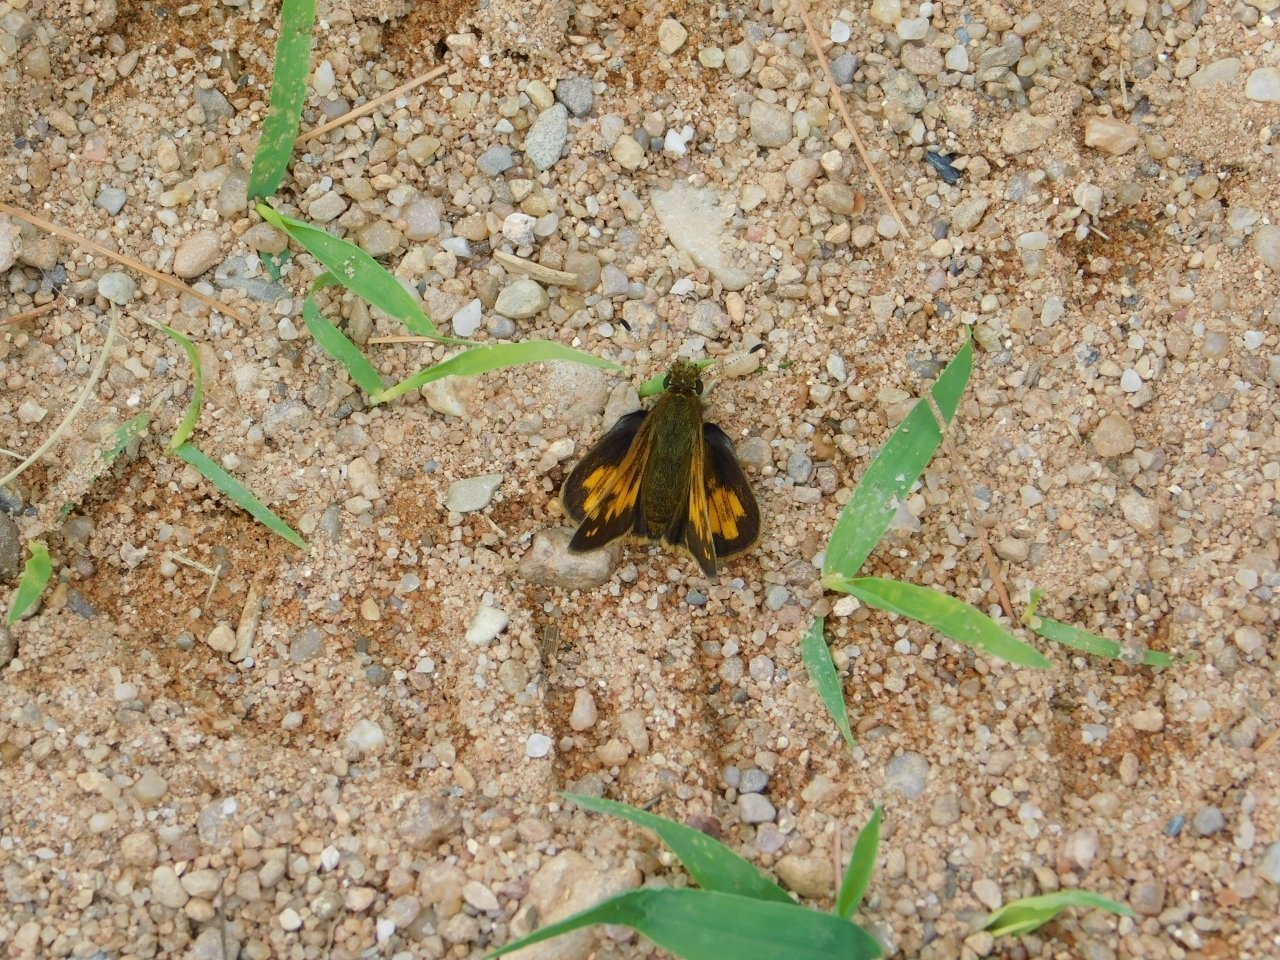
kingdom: Animalia
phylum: Arthropoda
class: Insecta
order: Lepidoptera
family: Hesperiidae
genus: Lon
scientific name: Lon hobomok
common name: Hobomok Skipper
